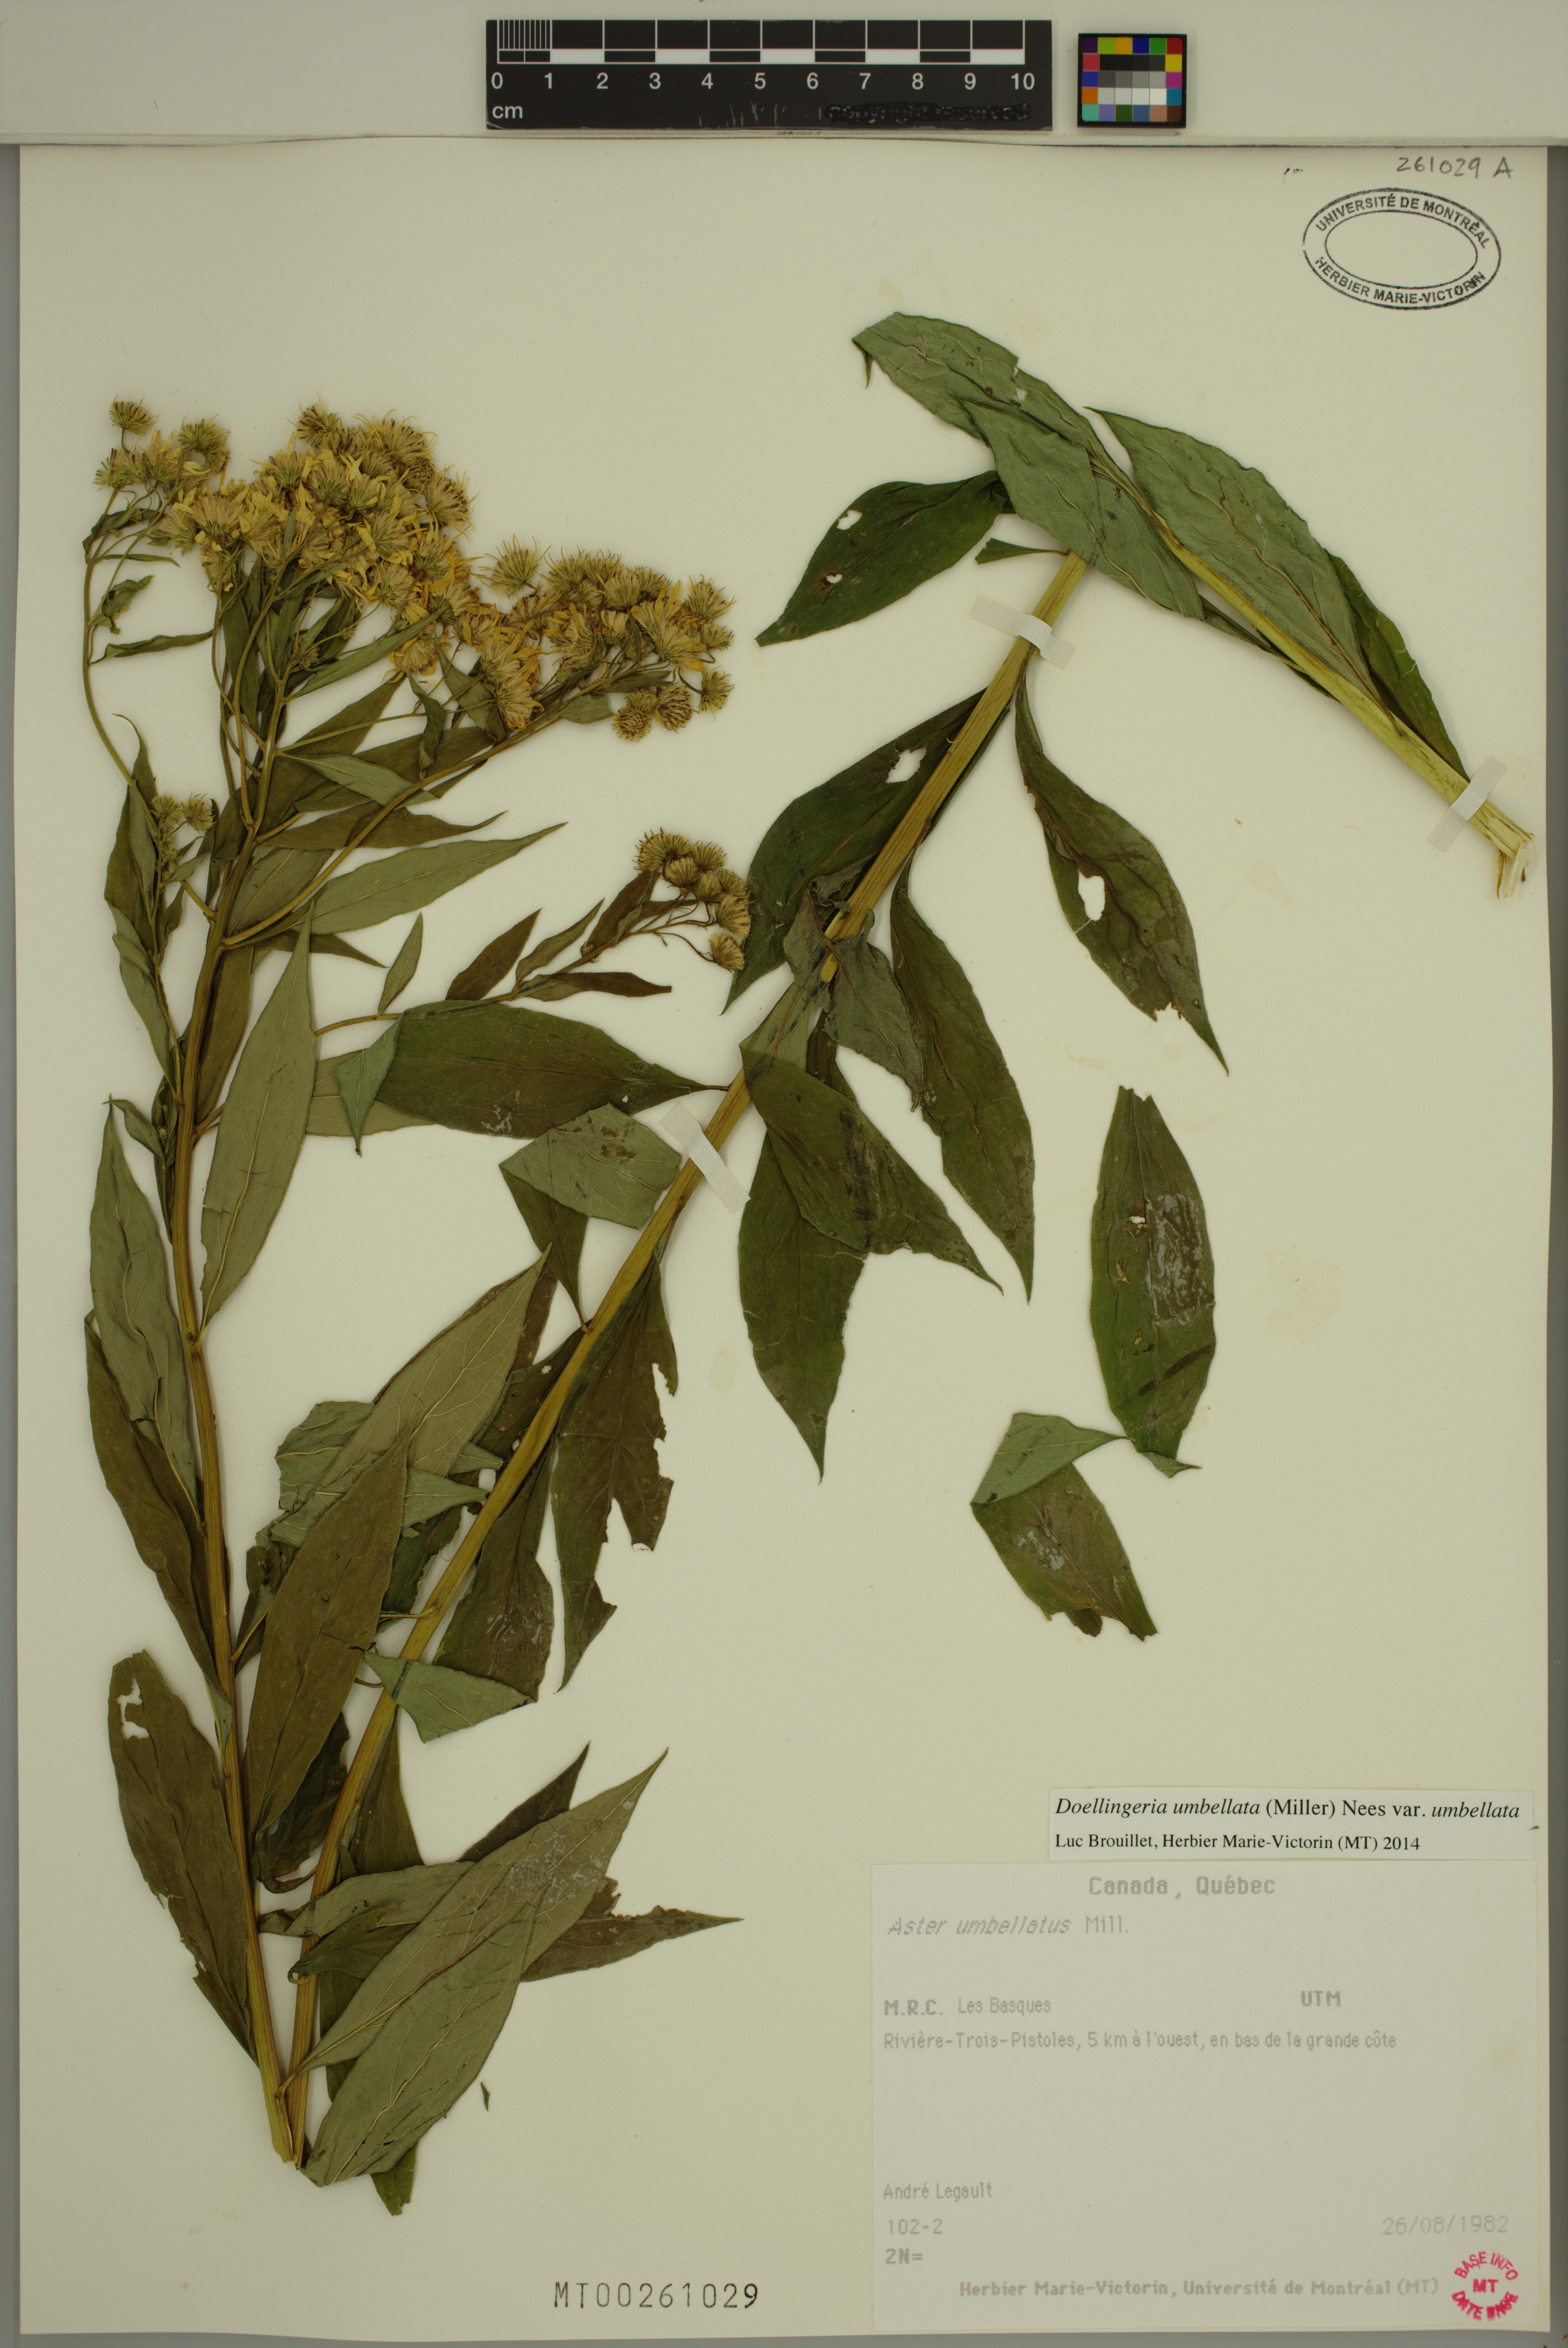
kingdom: Plantae
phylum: Tracheophyta
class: Magnoliopsida
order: Asterales
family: Asteraceae
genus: Doellingeria
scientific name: Doellingeria umbellata
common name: Flat-top white aster
